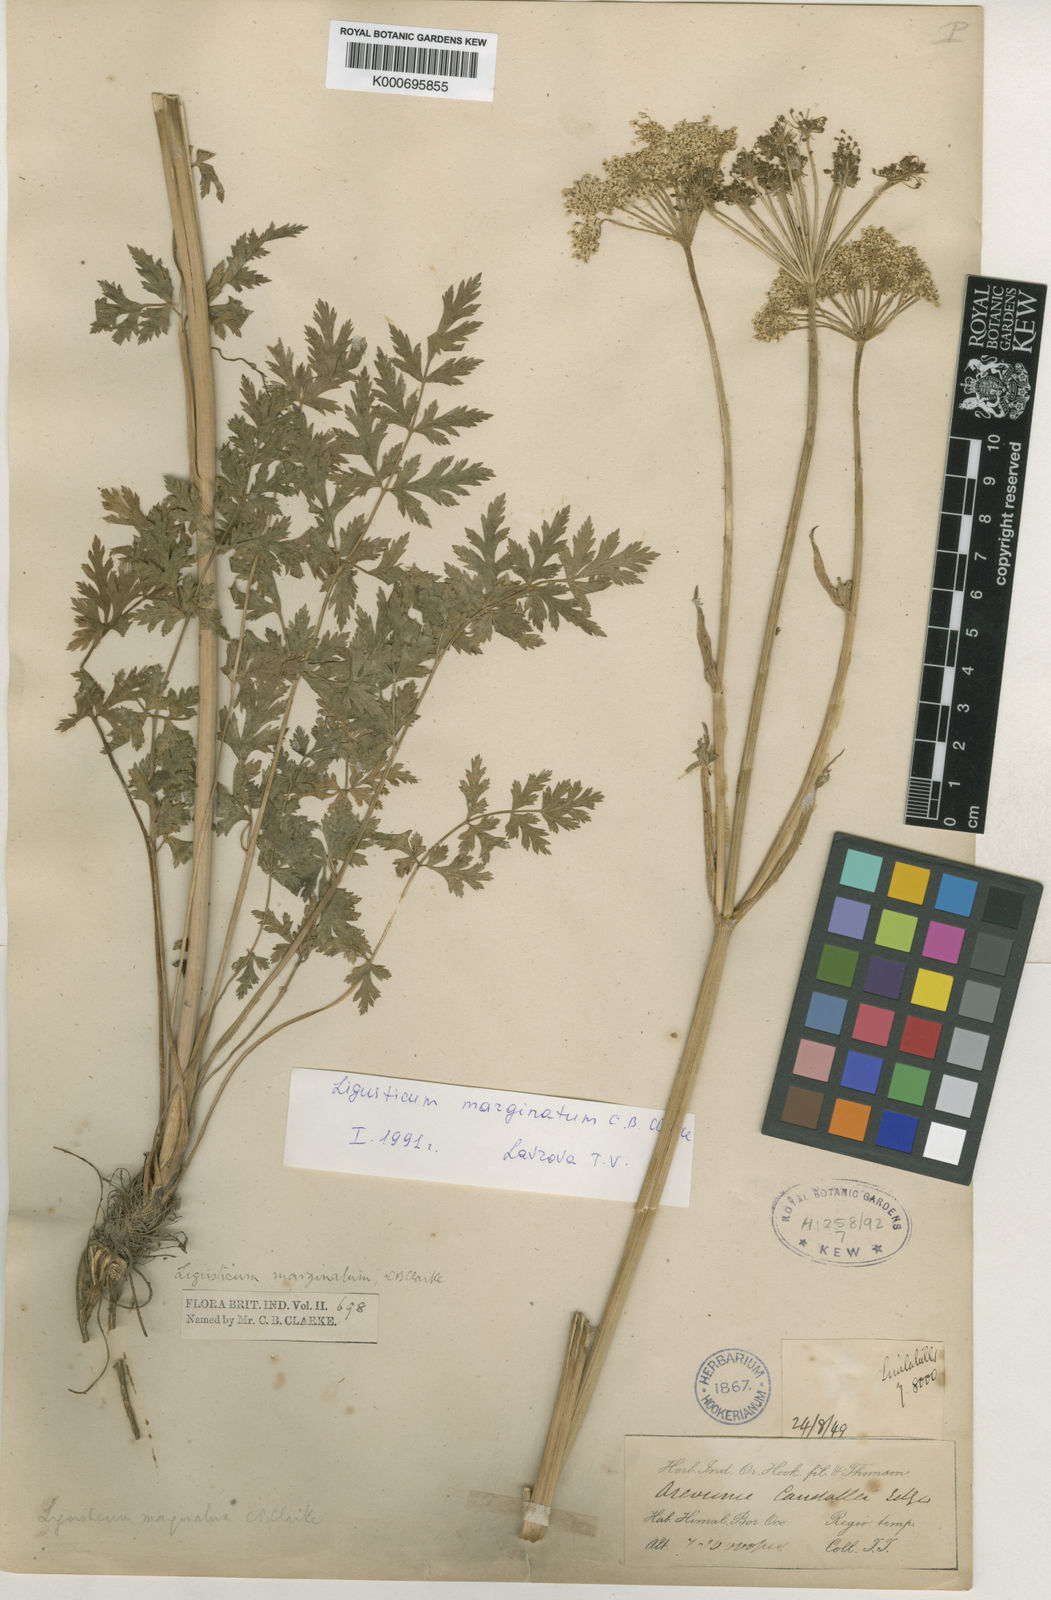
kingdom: Plantae
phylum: Tracheophyta
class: Magnoliopsida
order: Apiales
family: Apiaceae
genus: Seseli
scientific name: Seseli roylei
